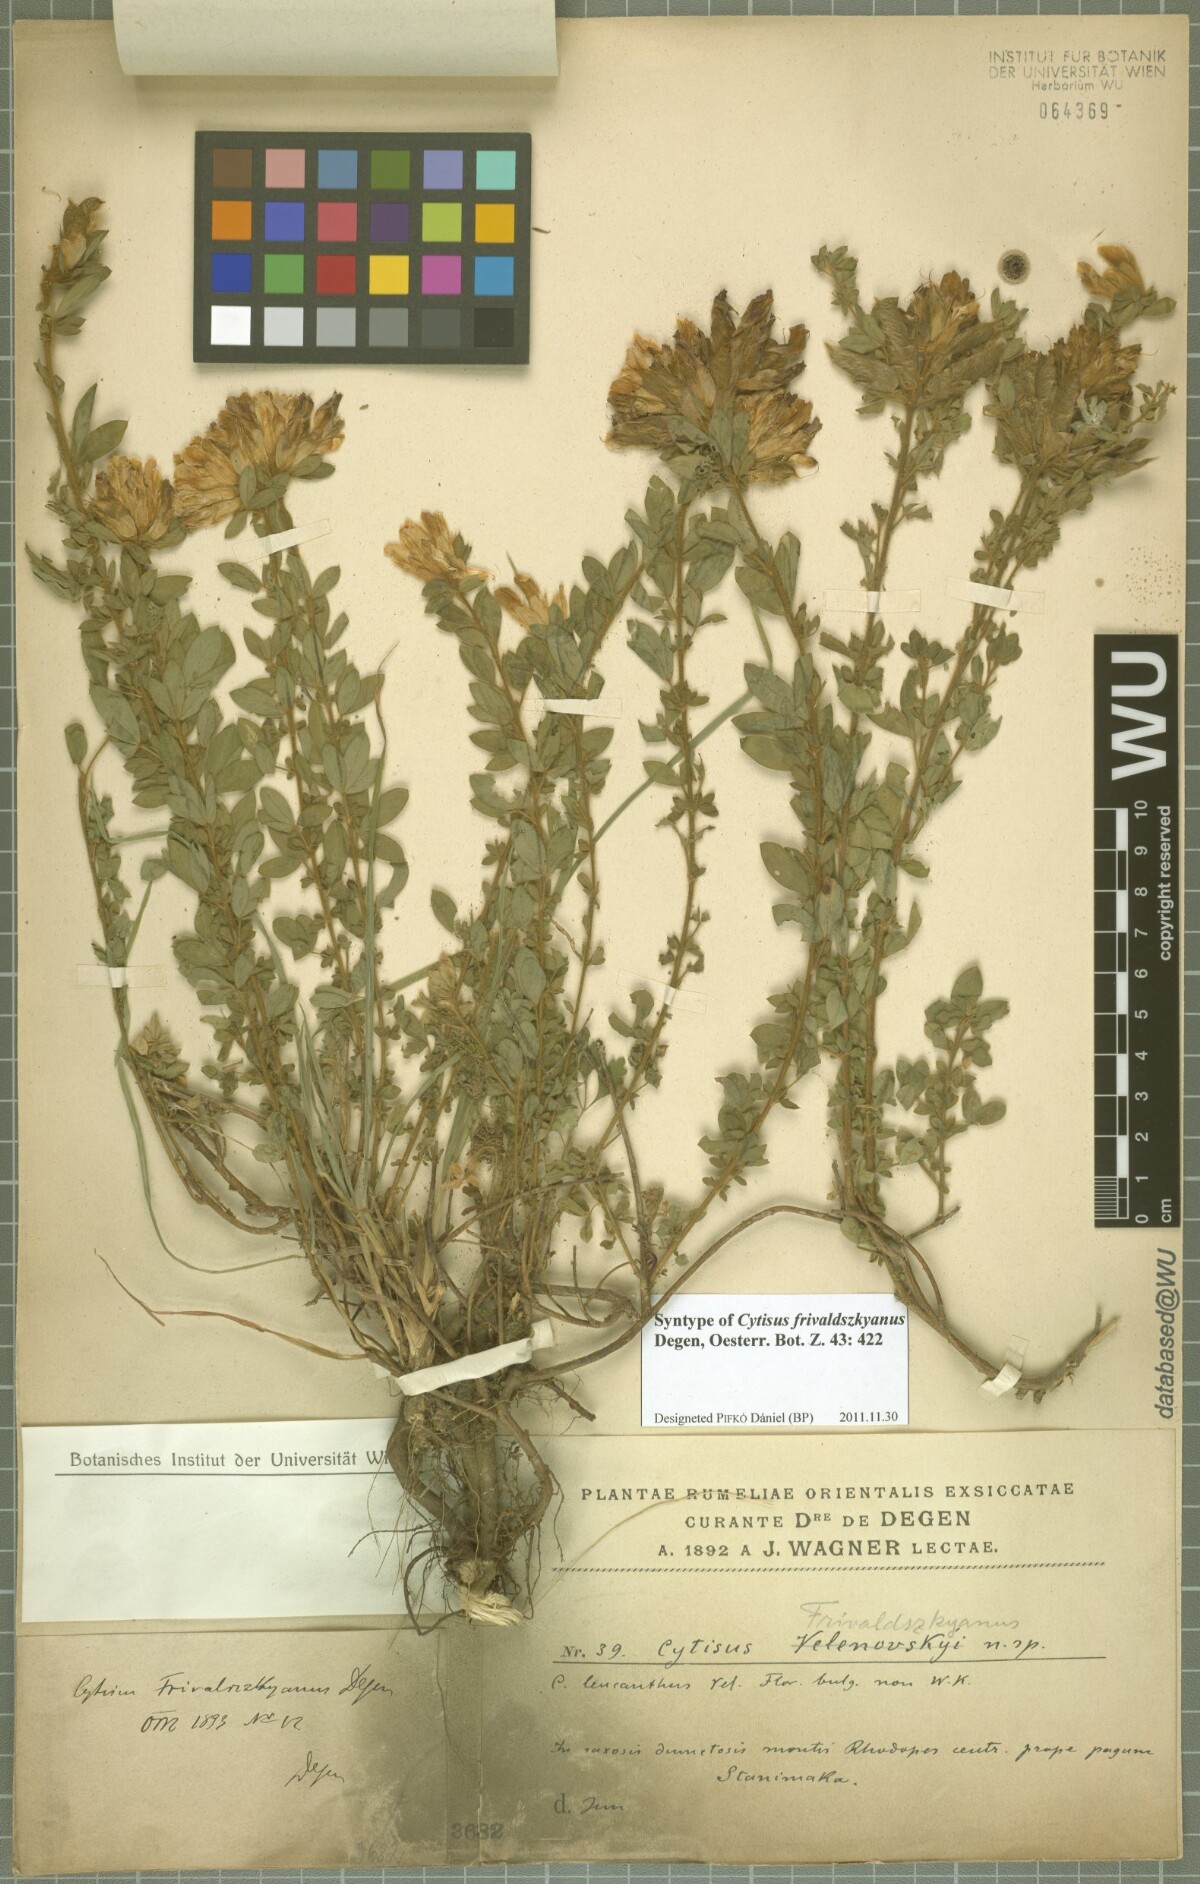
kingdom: Plantae
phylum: Tracheophyta
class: Magnoliopsida
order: Fabales
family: Fabaceae
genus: Chamaecytisus
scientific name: Chamaecytisus frivaldszkyanus
